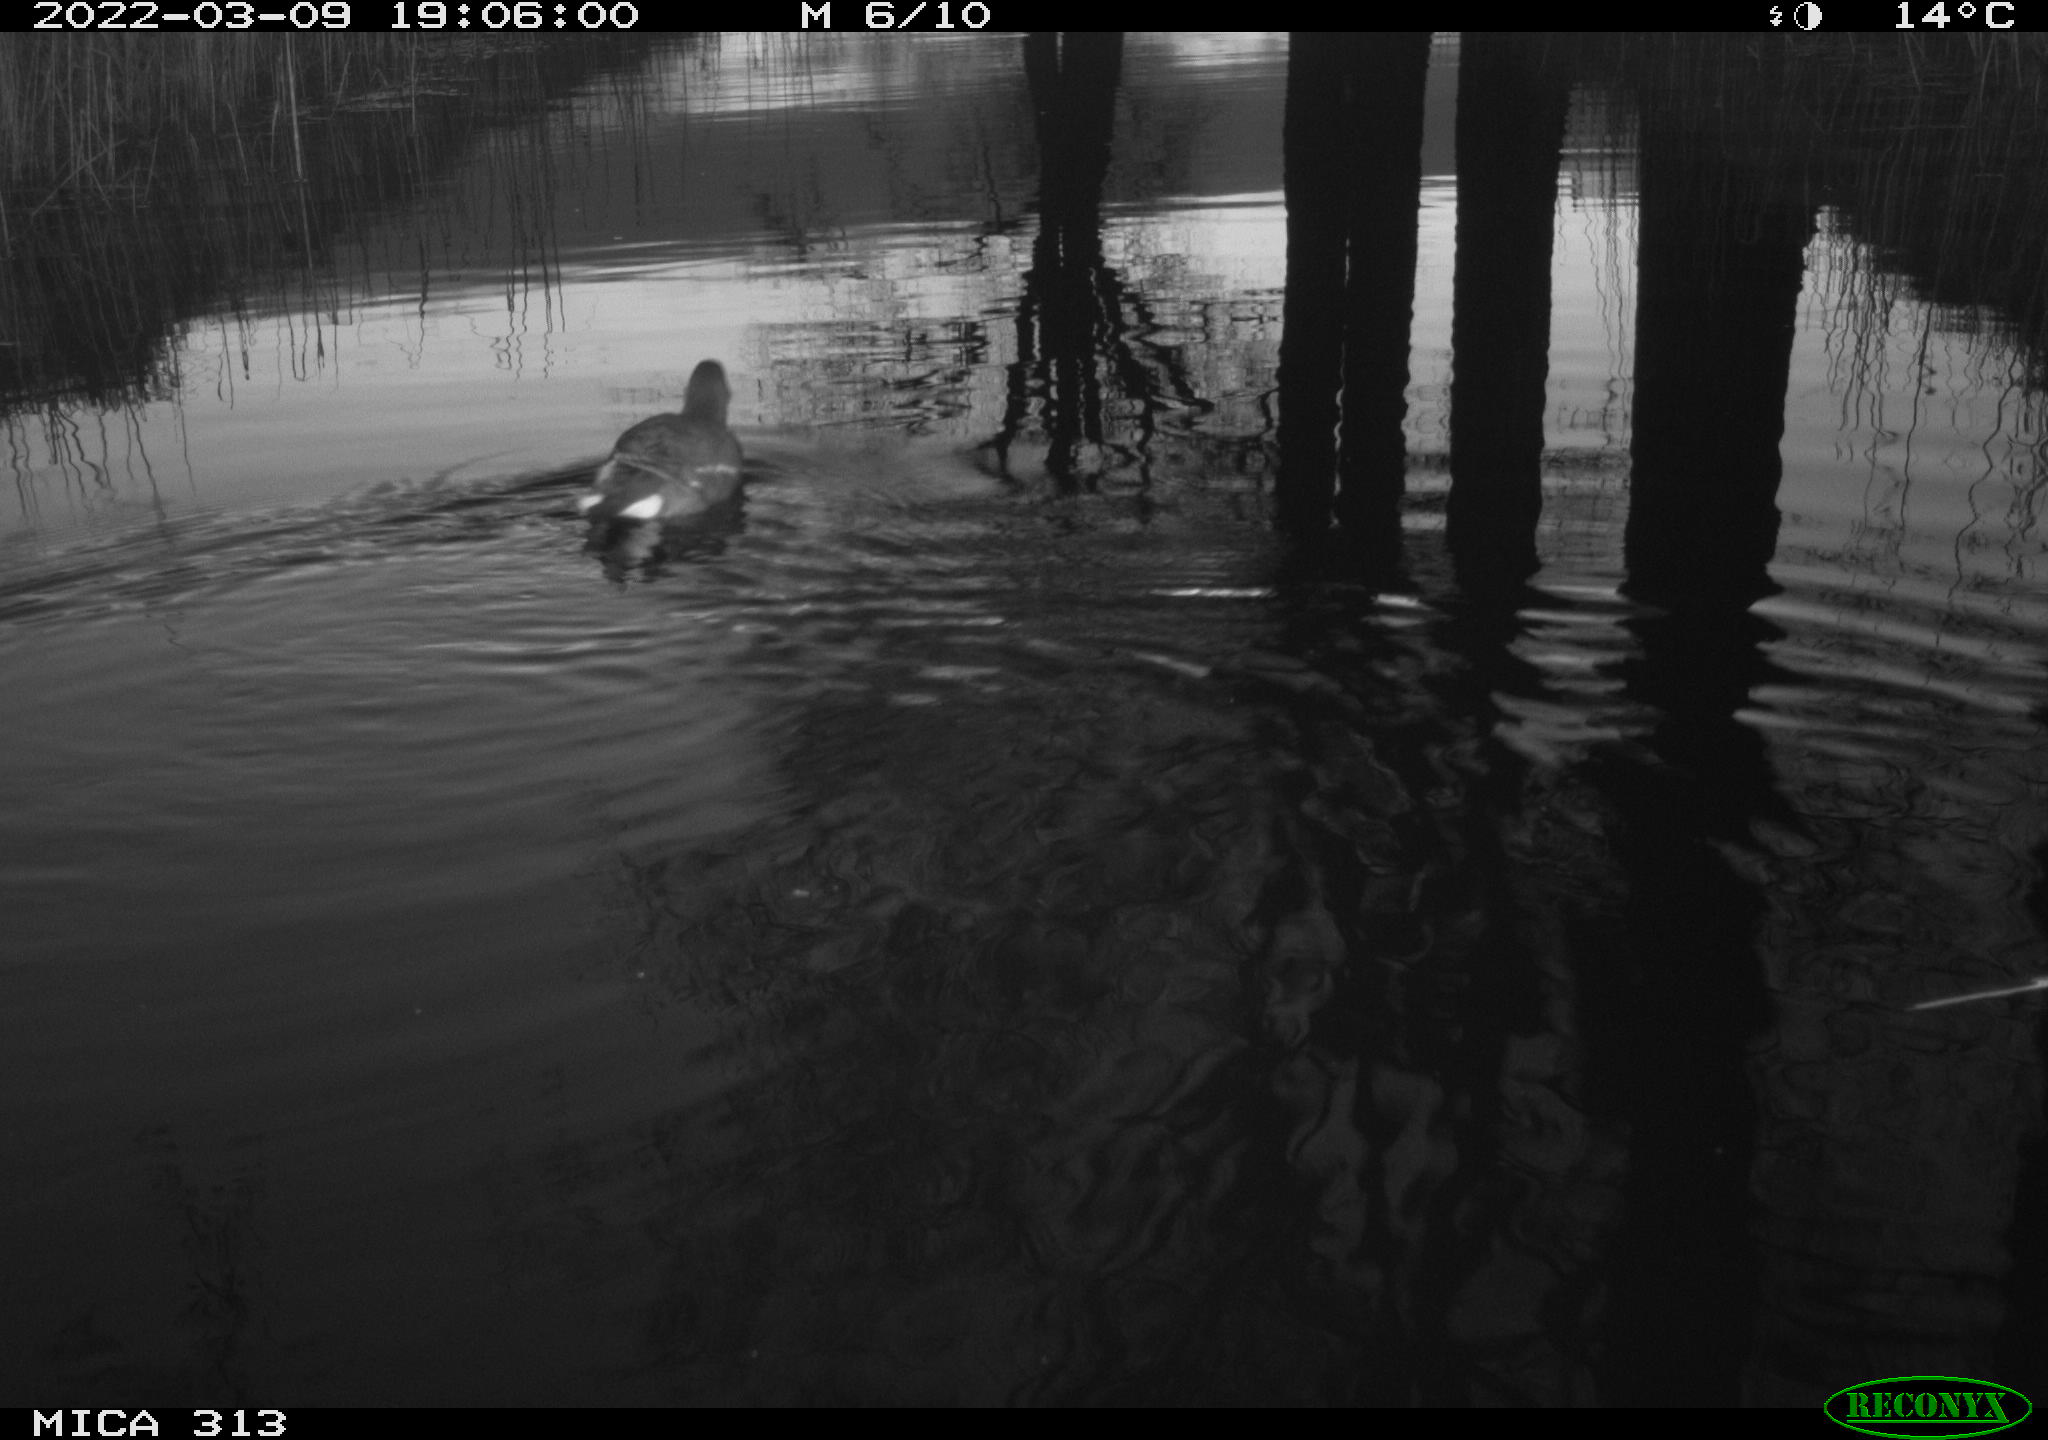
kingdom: Animalia
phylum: Chordata
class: Aves
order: Gruiformes
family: Rallidae
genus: Fulica
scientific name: Fulica atra
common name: Eurasian coot
